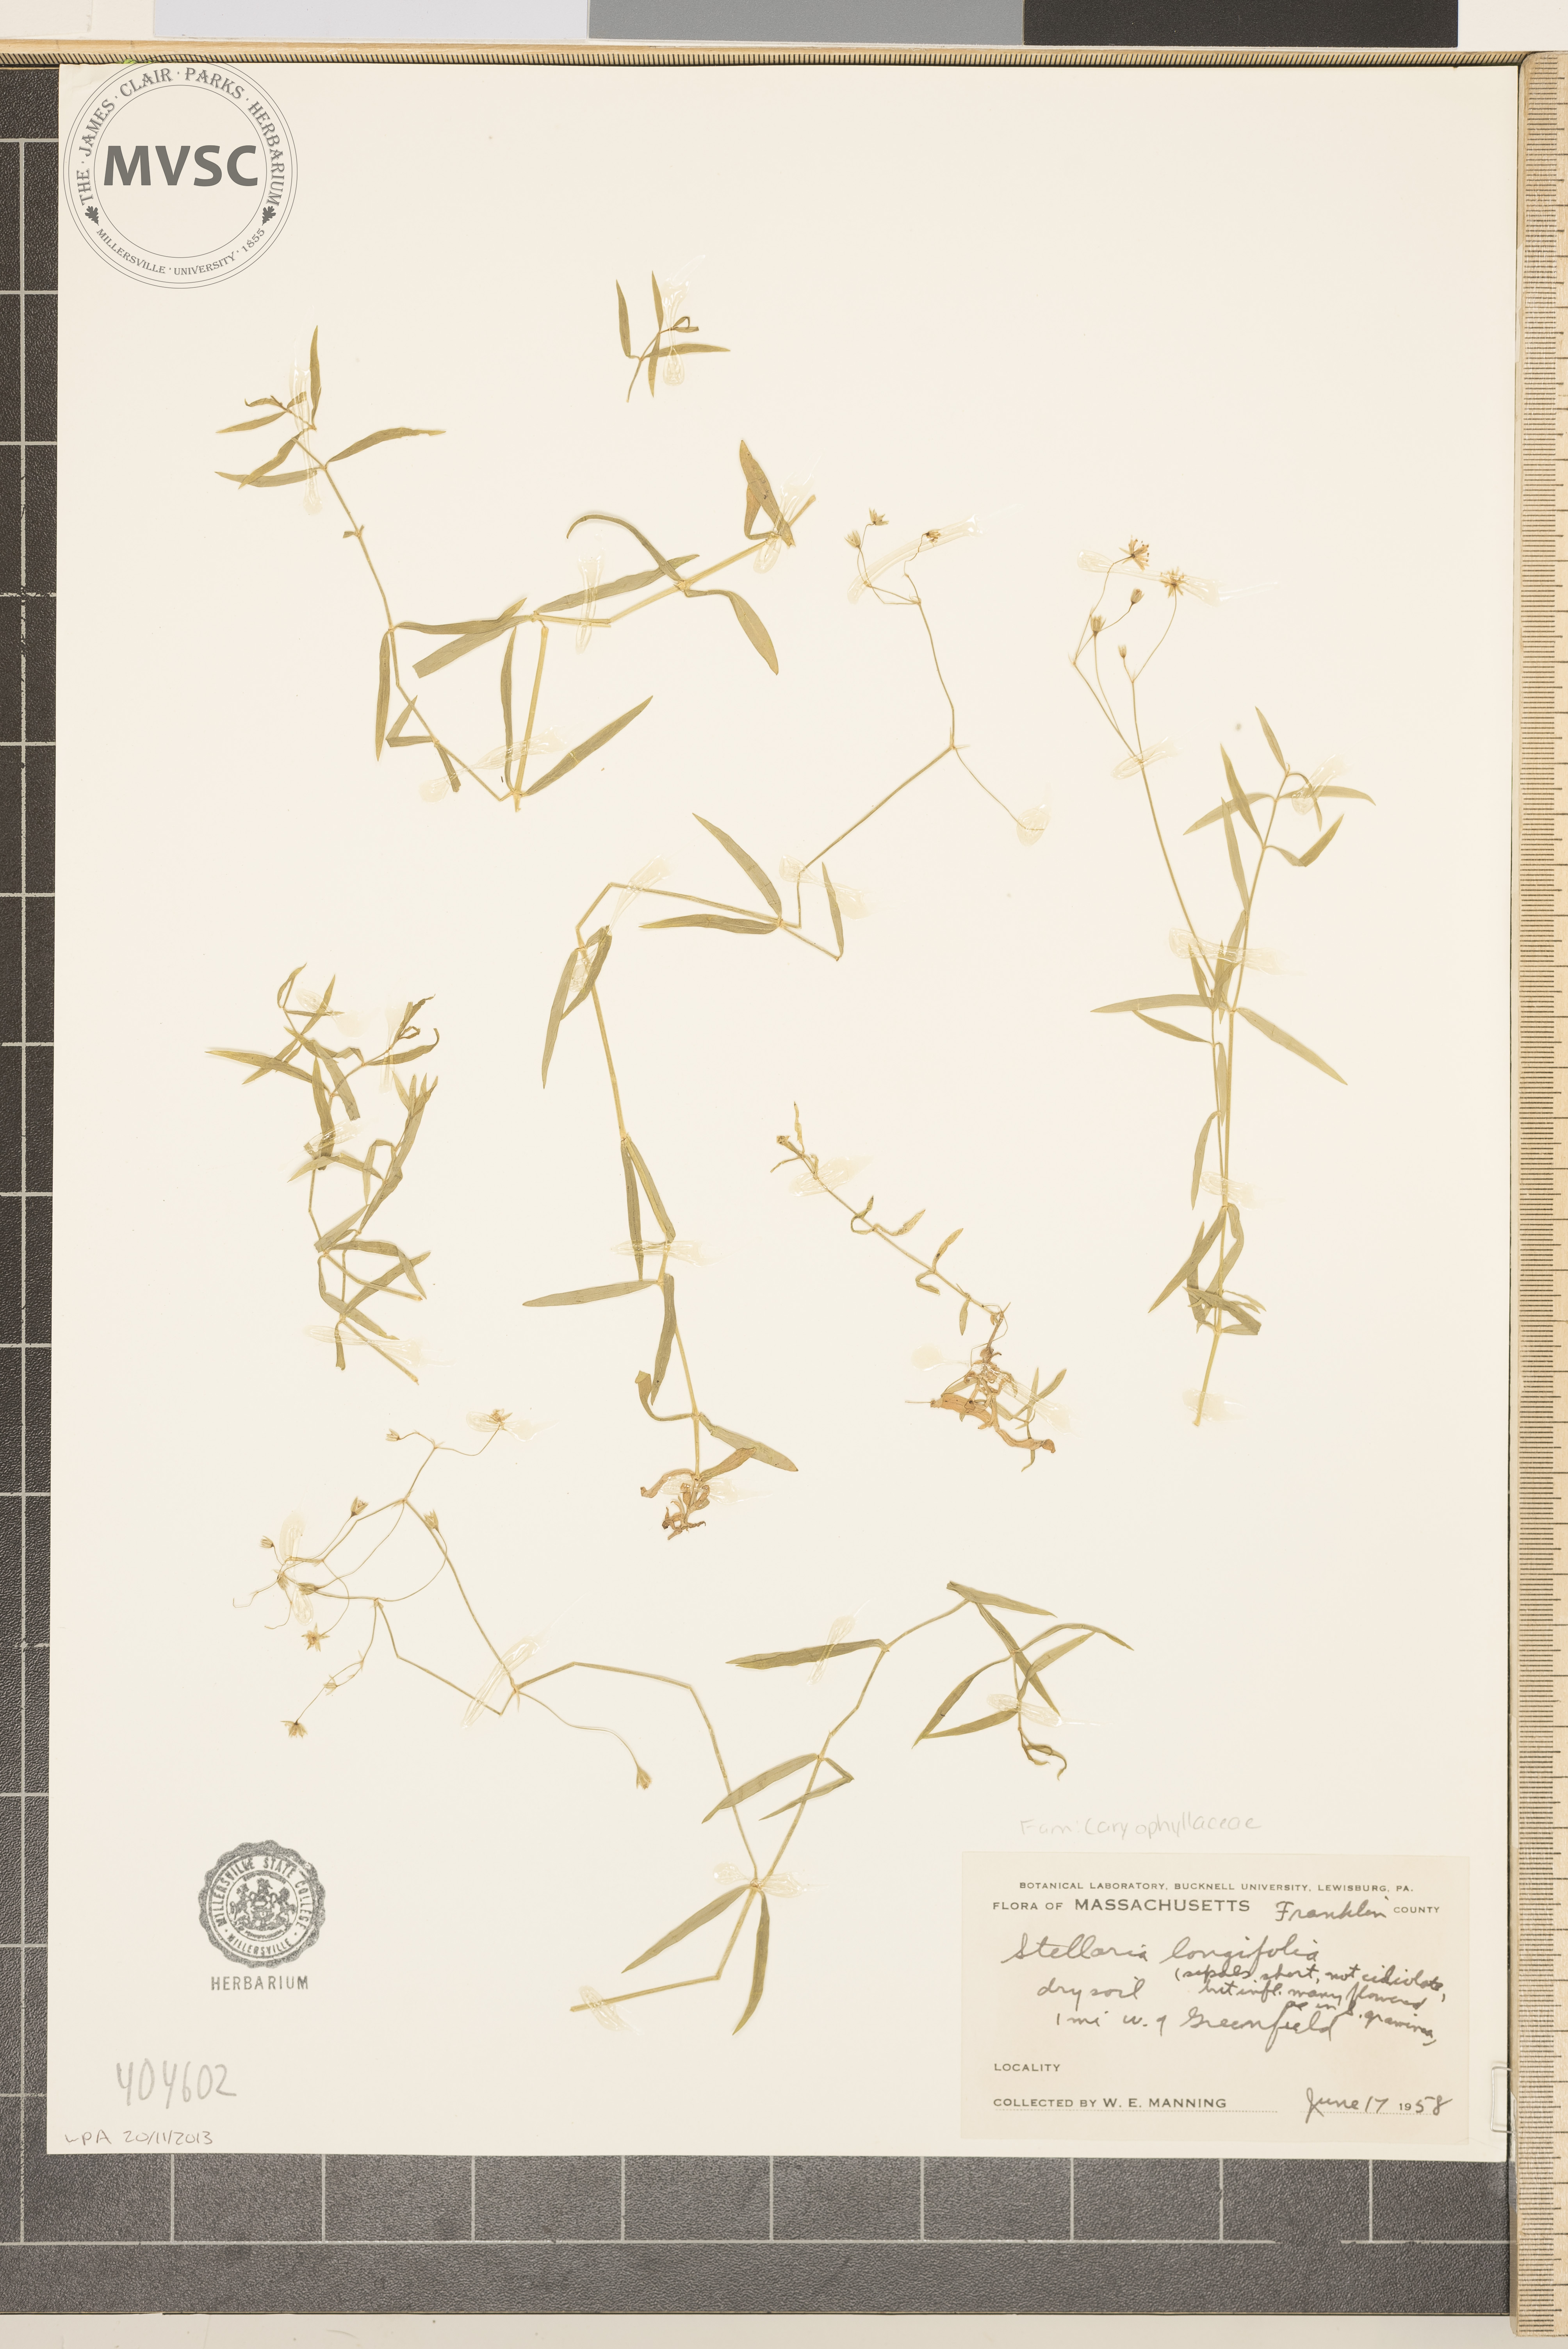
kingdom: Plantae
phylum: Tracheophyta
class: Magnoliopsida
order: Caryophyllales
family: Caryophyllaceae
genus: Stellaria
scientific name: Stellaria longifolia
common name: Long-leaved chickweed
